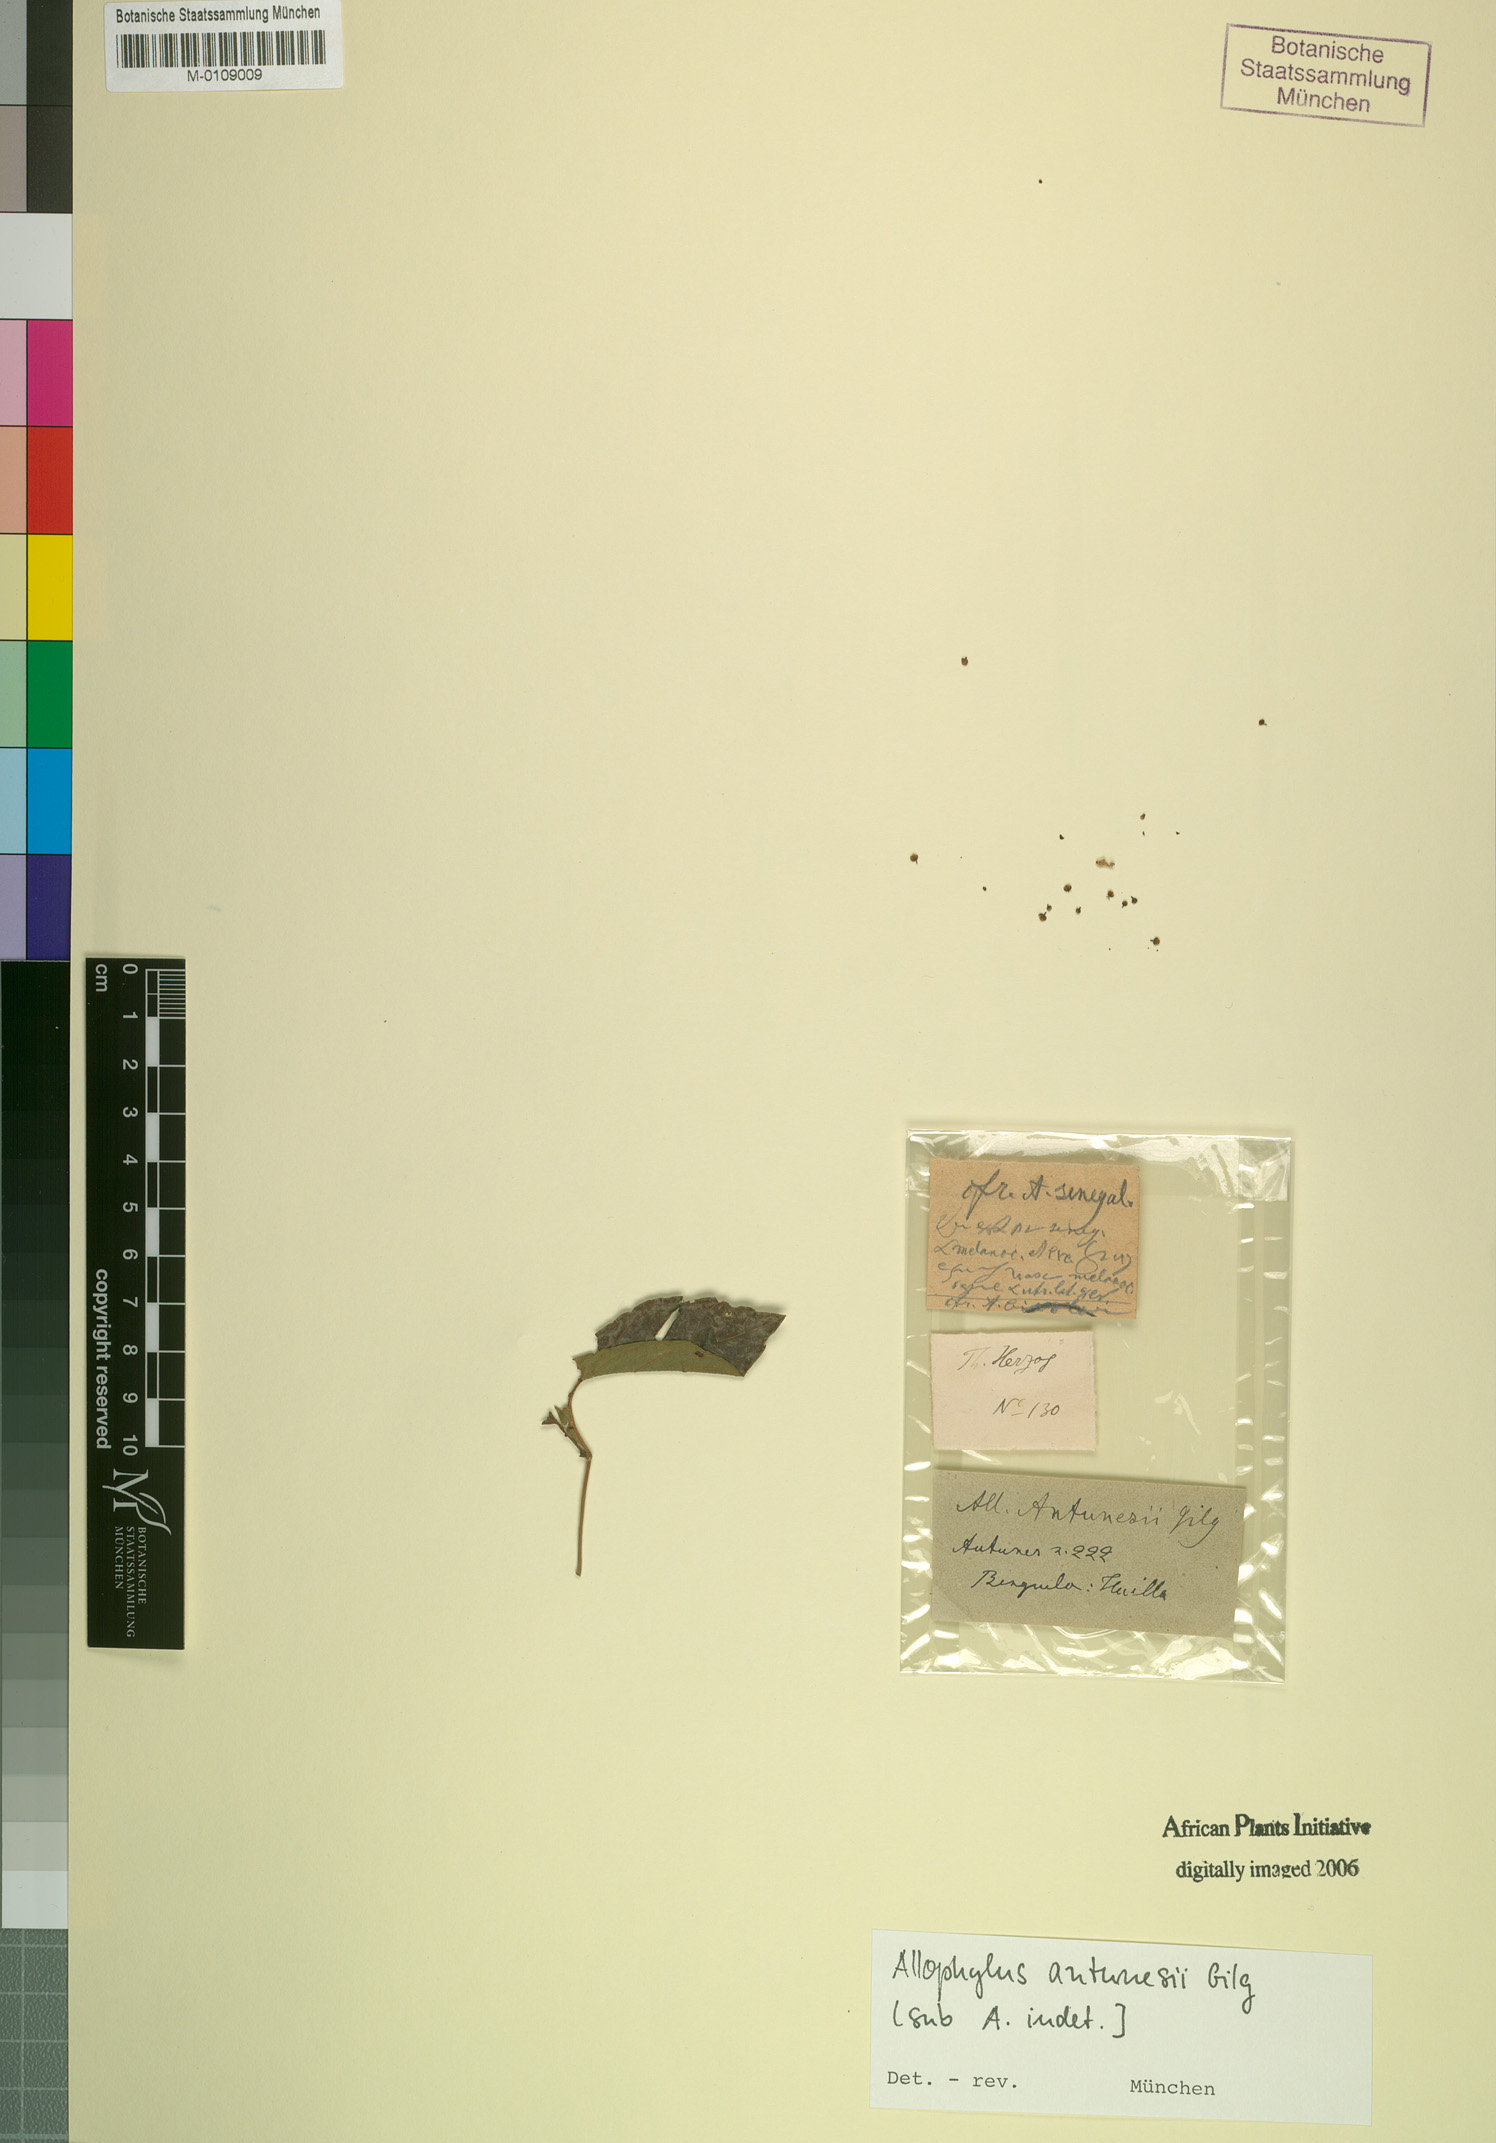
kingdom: Plantae
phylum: Tracheophyta
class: Magnoliopsida
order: Sapindales
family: Sapindaceae
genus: Allophylus
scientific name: Allophylus antunesii
